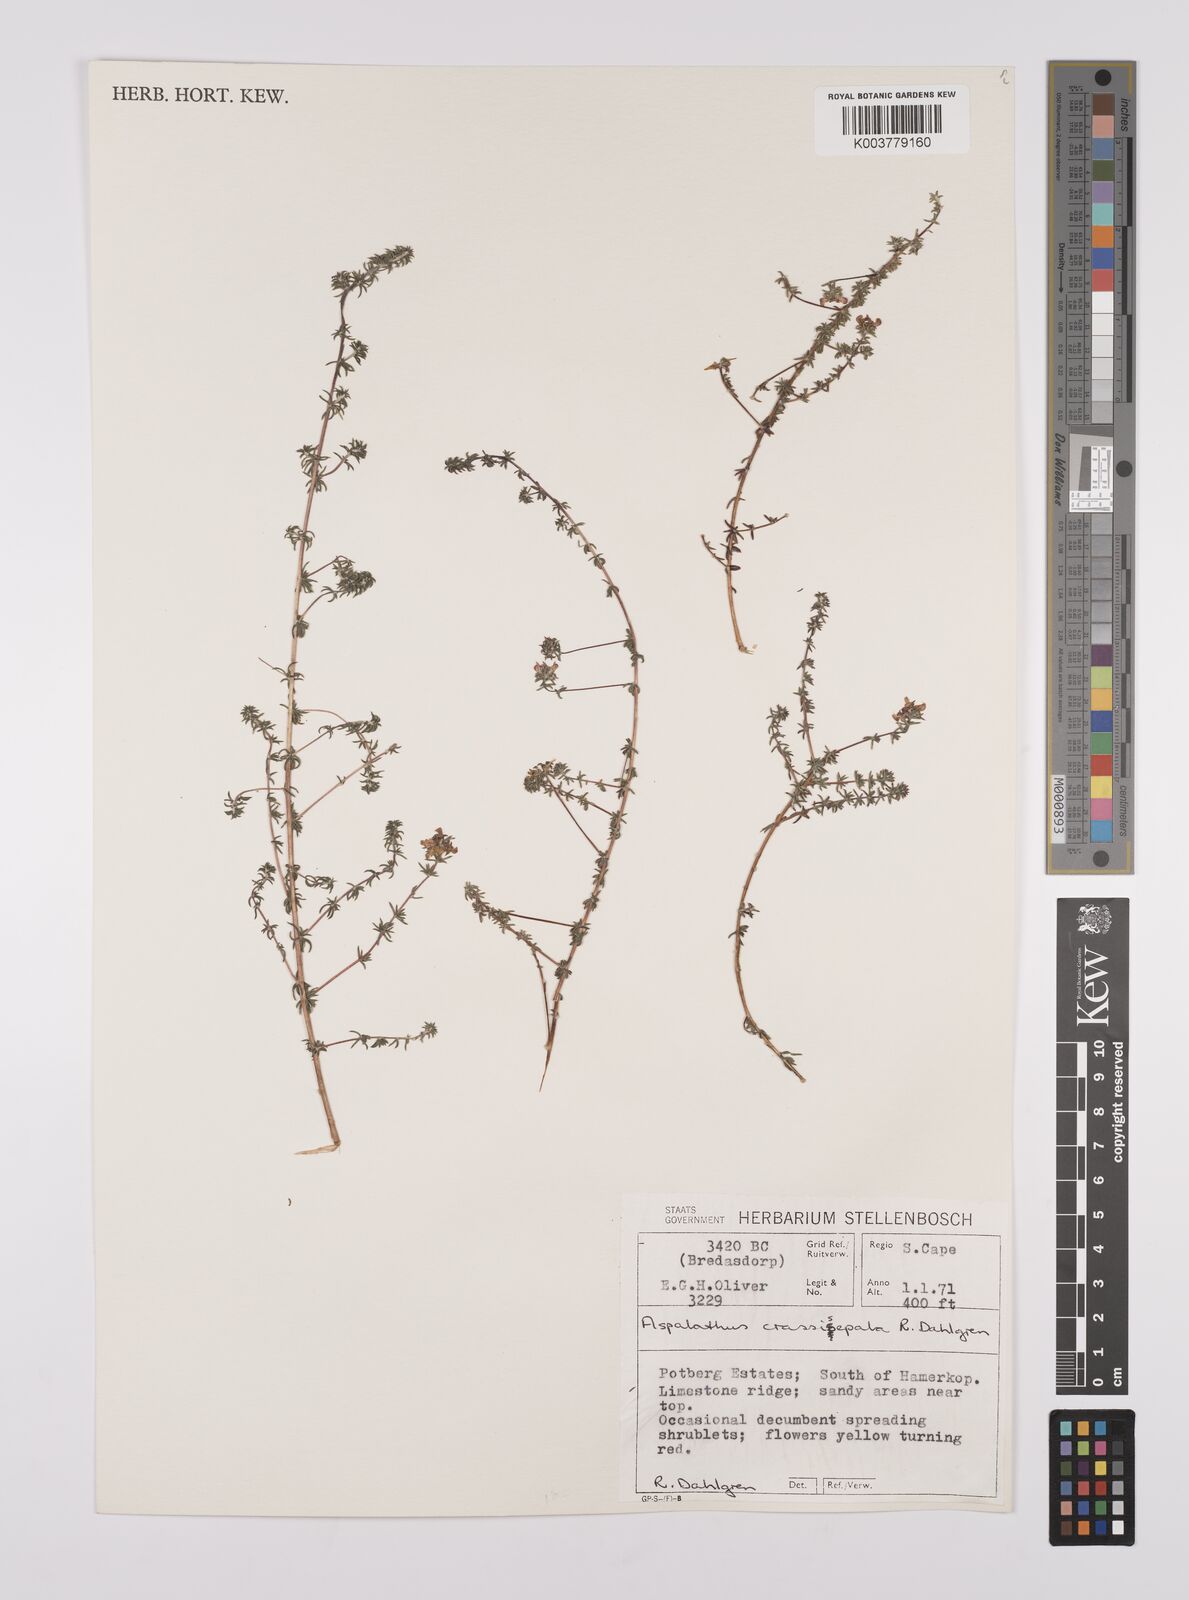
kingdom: Plantae
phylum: Tracheophyta
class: Magnoliopsida
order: Fabales
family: Fabaceae
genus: Aspalathus
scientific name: Aspalathus crassisepala
